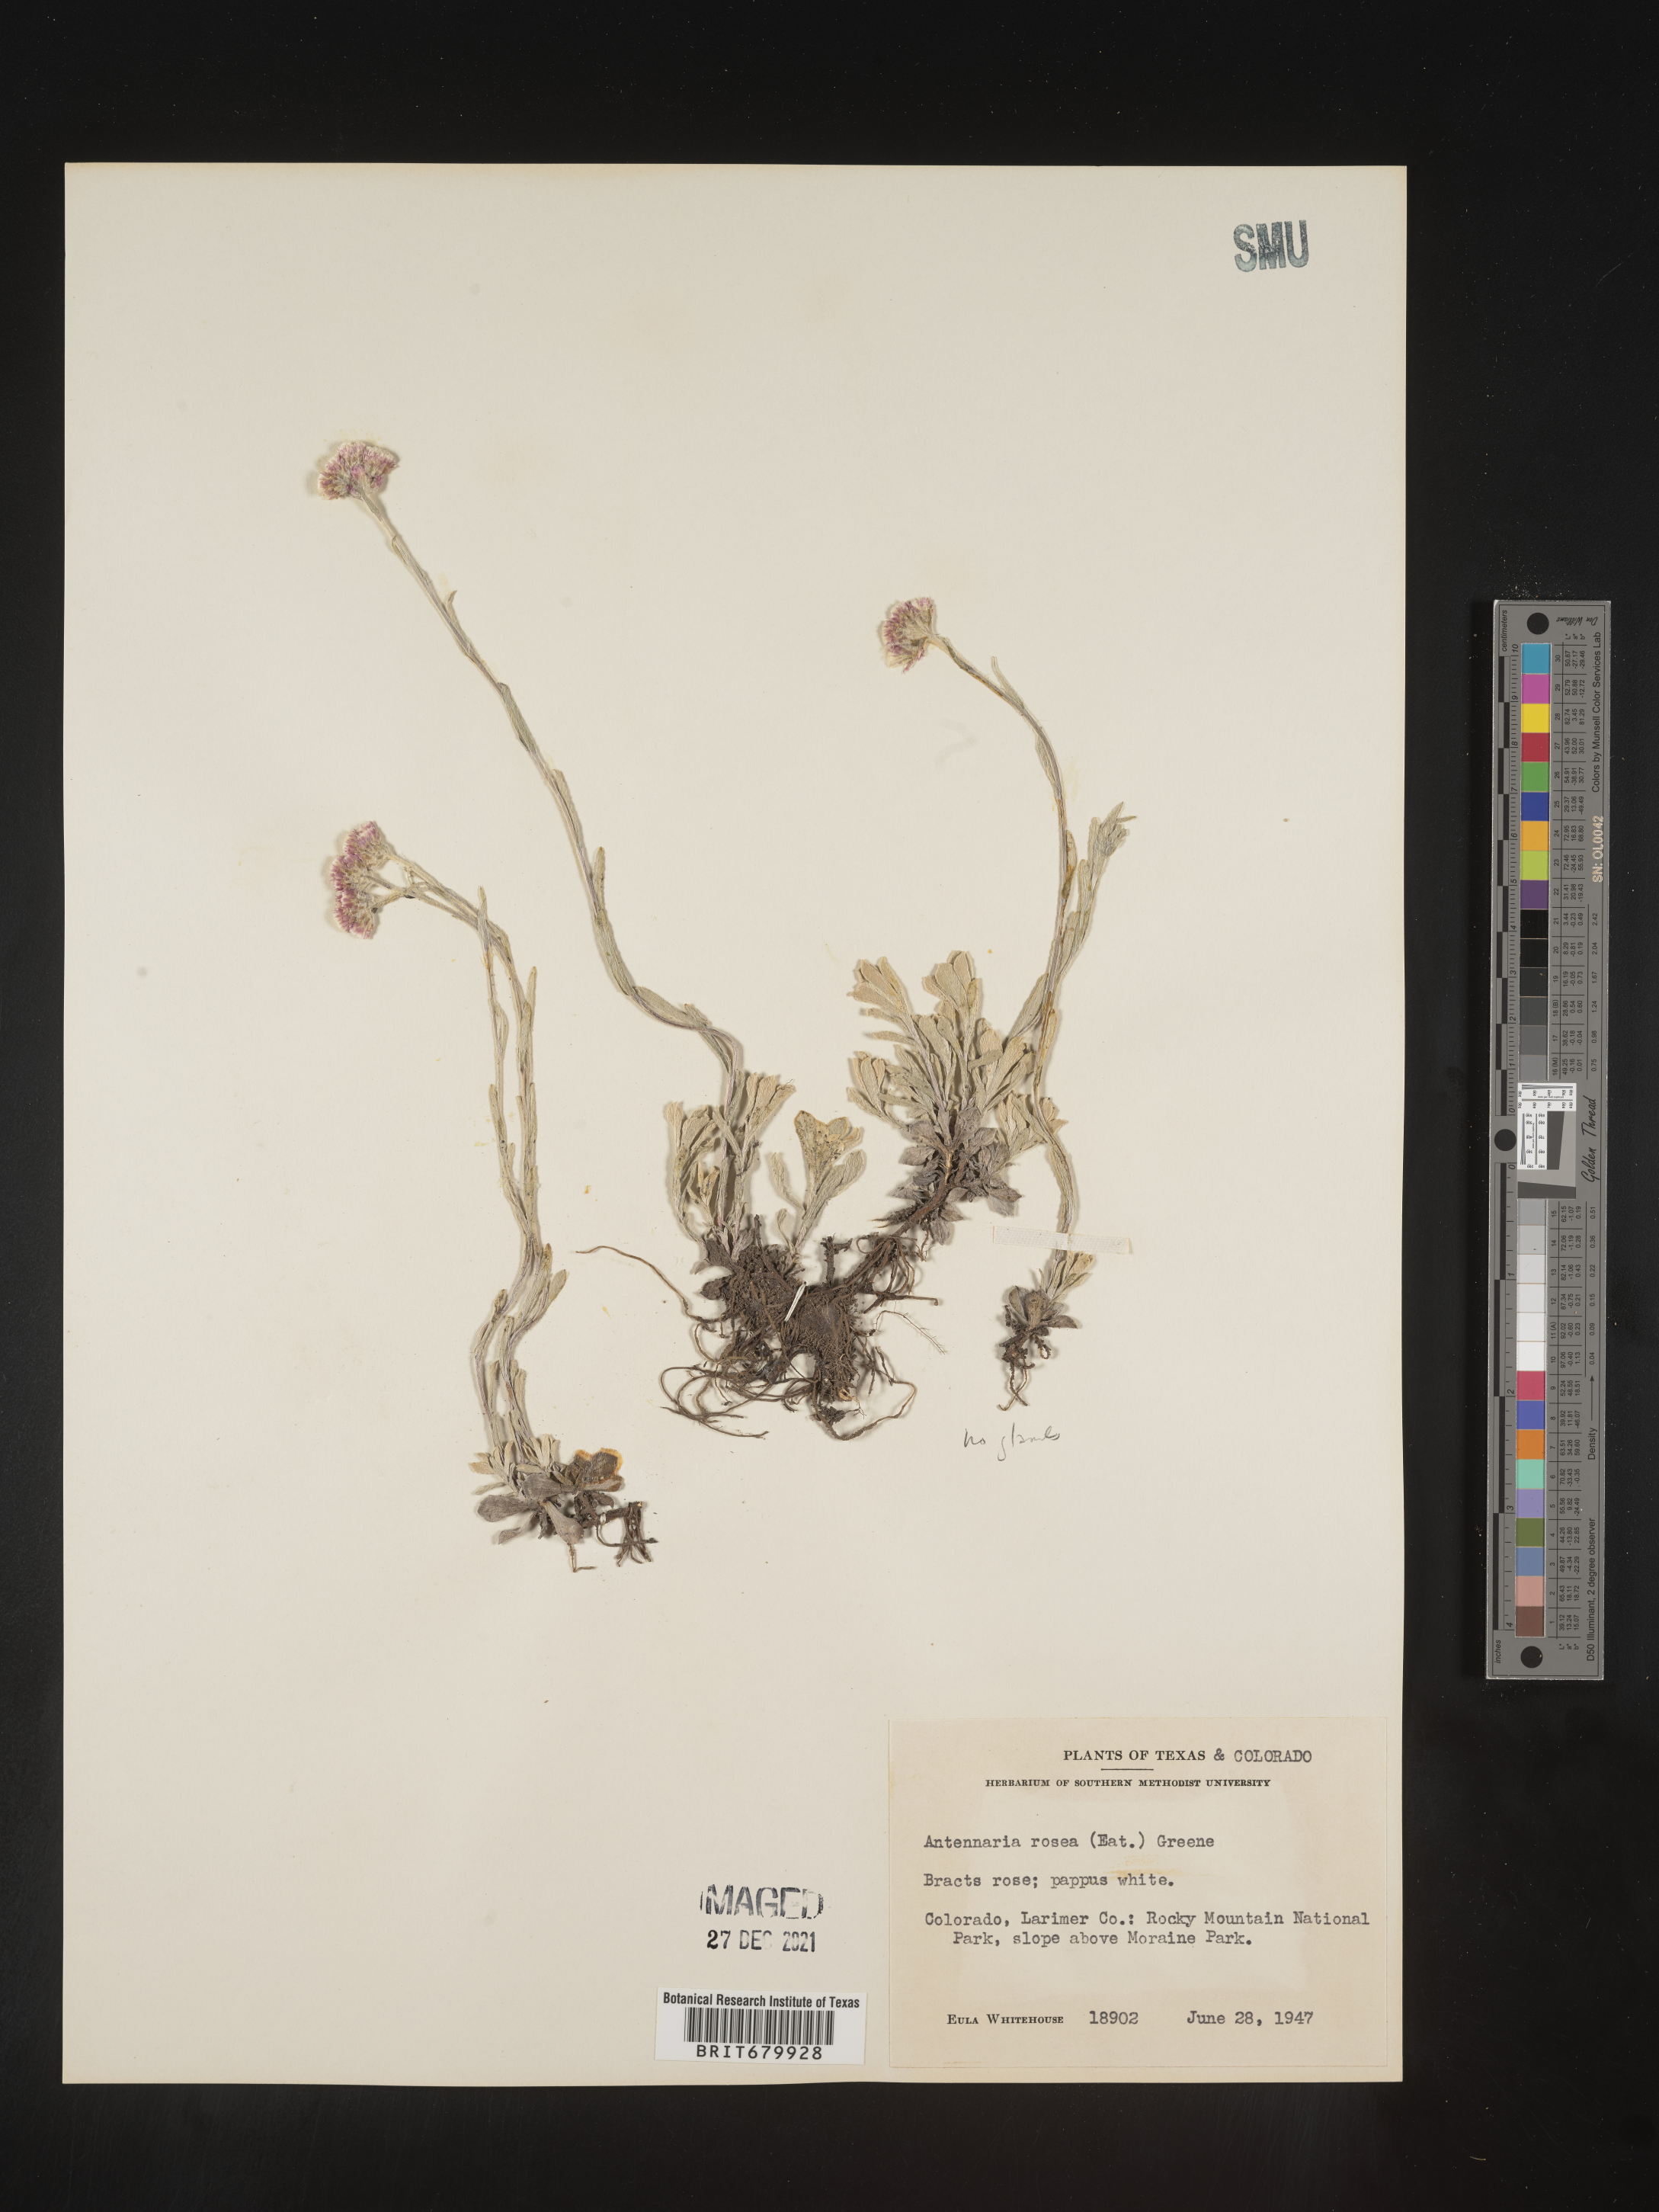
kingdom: Plantae
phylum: Tracheophyta
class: Magnoliopsida
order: Asterales
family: Asteraceae
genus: Antennaria
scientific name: Antennaria rosea
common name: Rosy pussytoes
